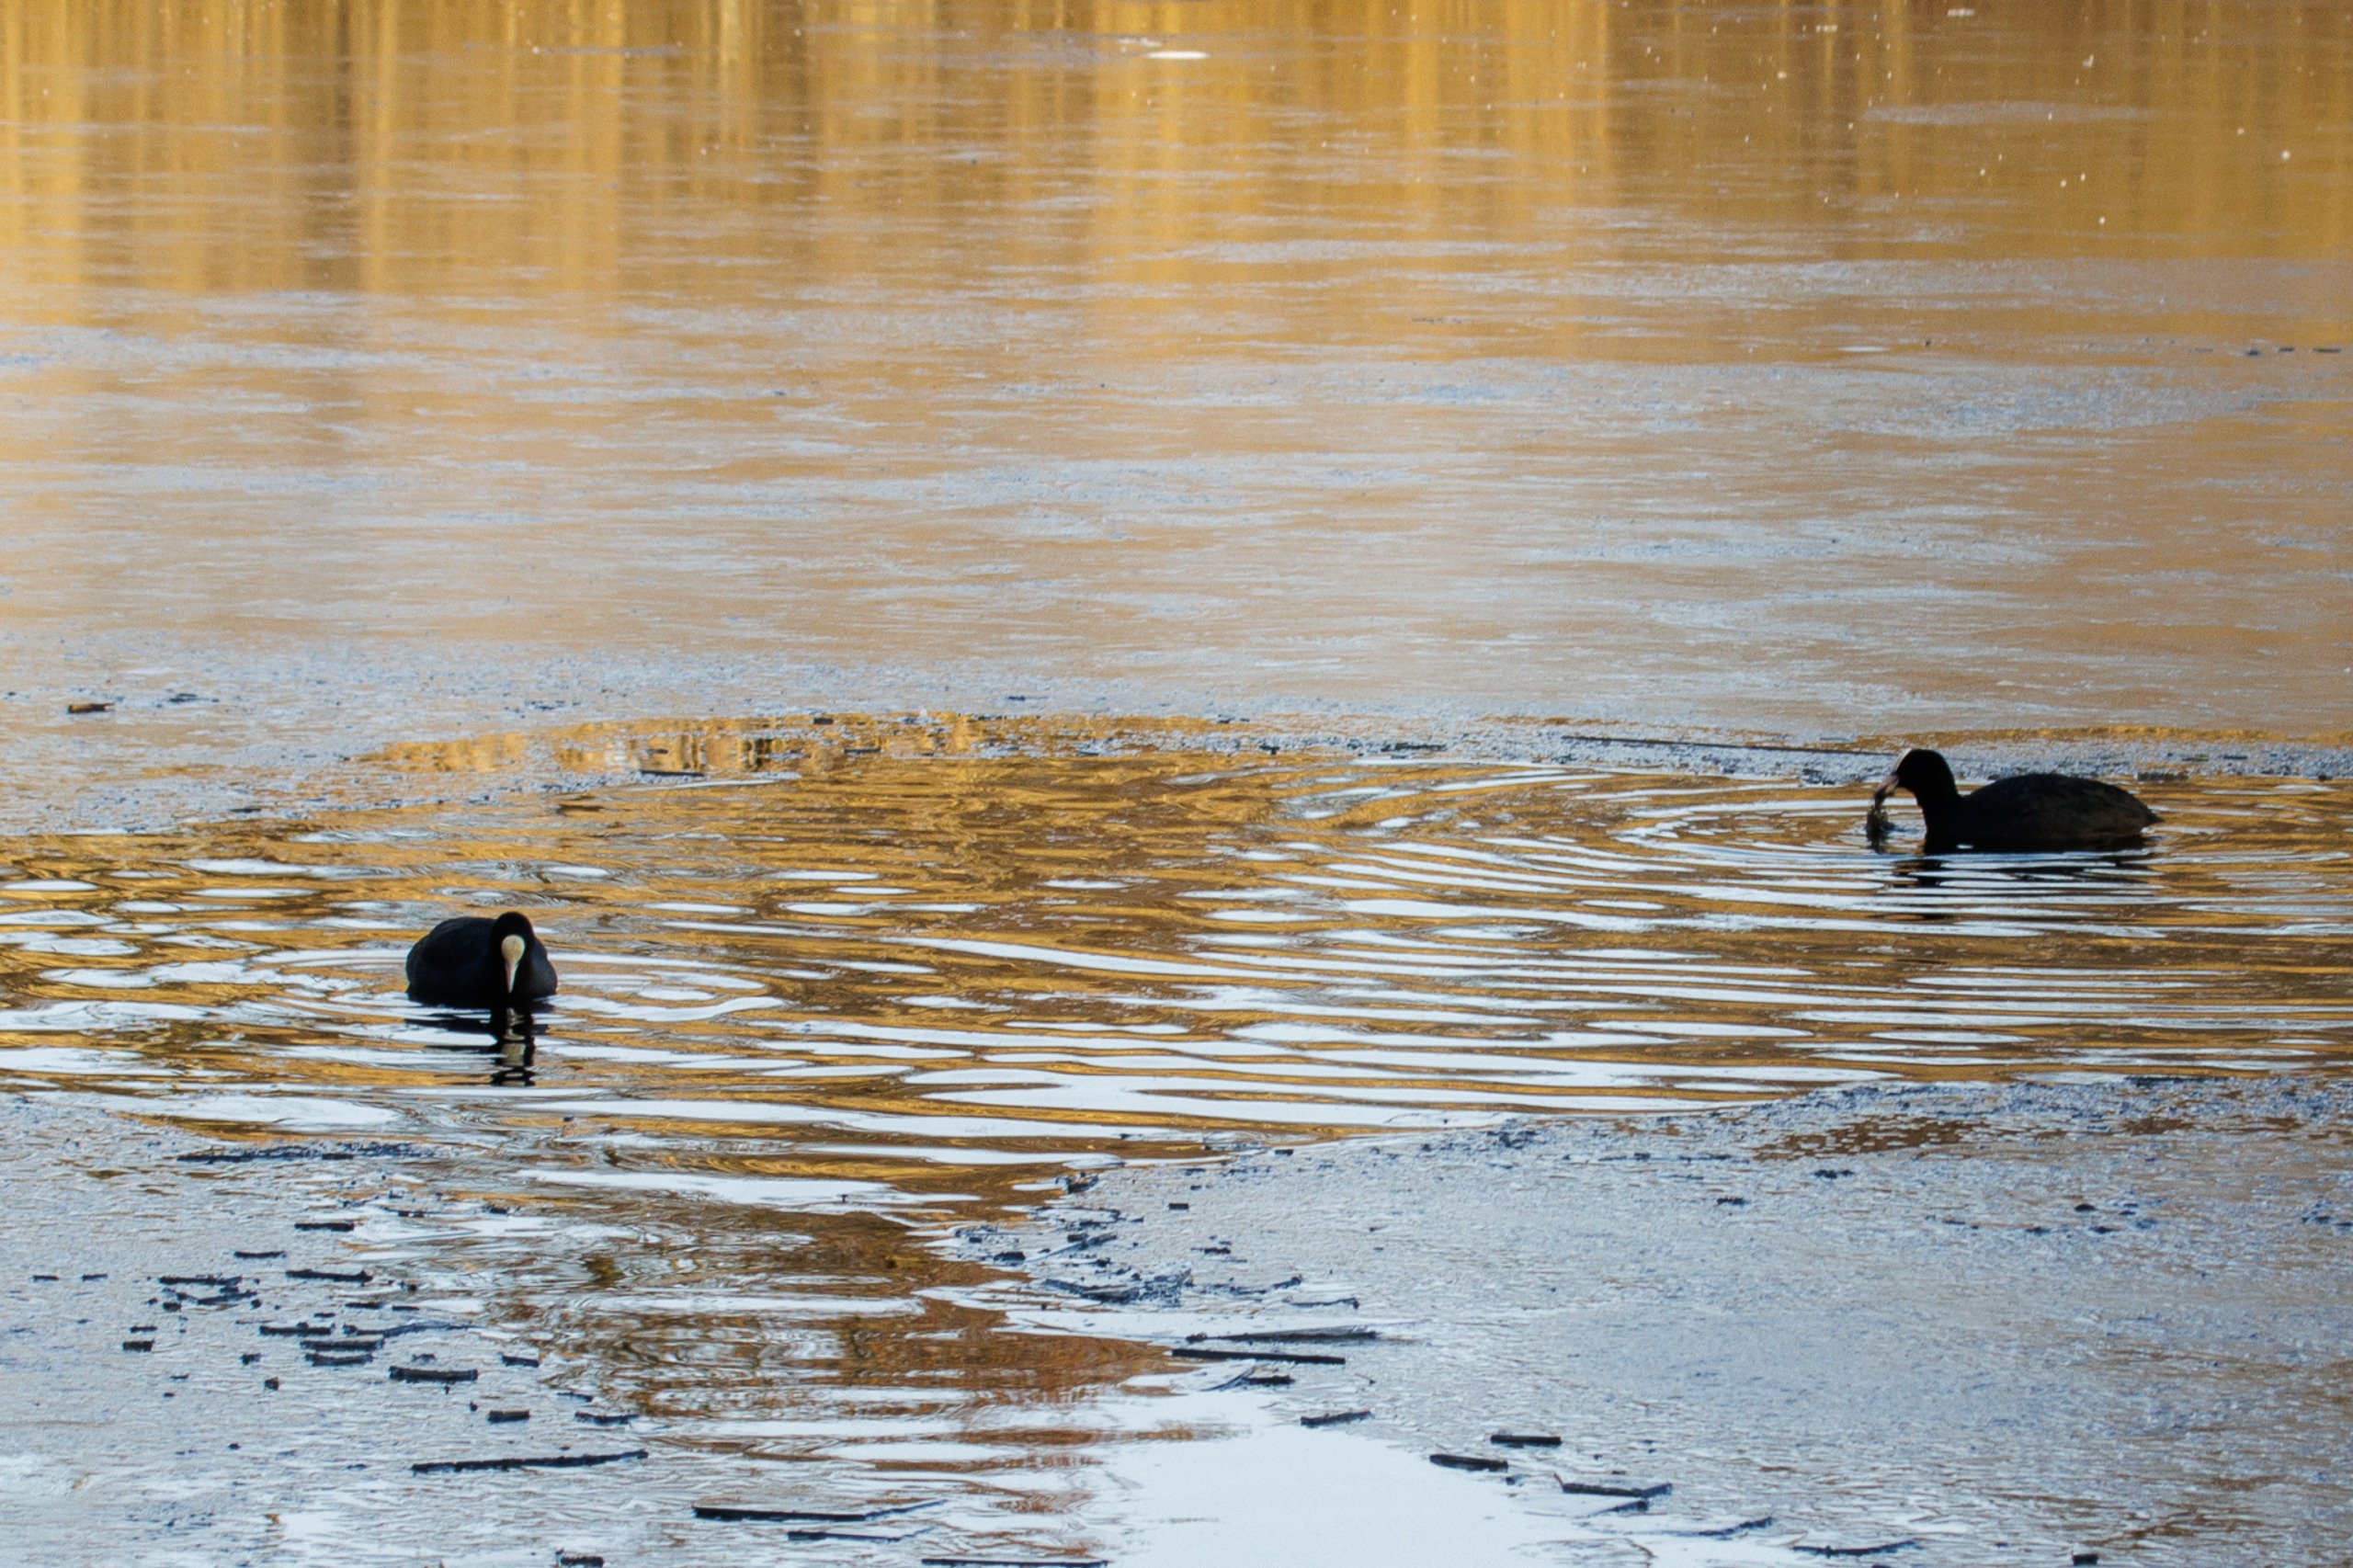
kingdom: Animalia
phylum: Chordata
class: Aves
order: Gruiformes
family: Rallidae
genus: Fulica
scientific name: Fulica atra
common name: Blishøne
